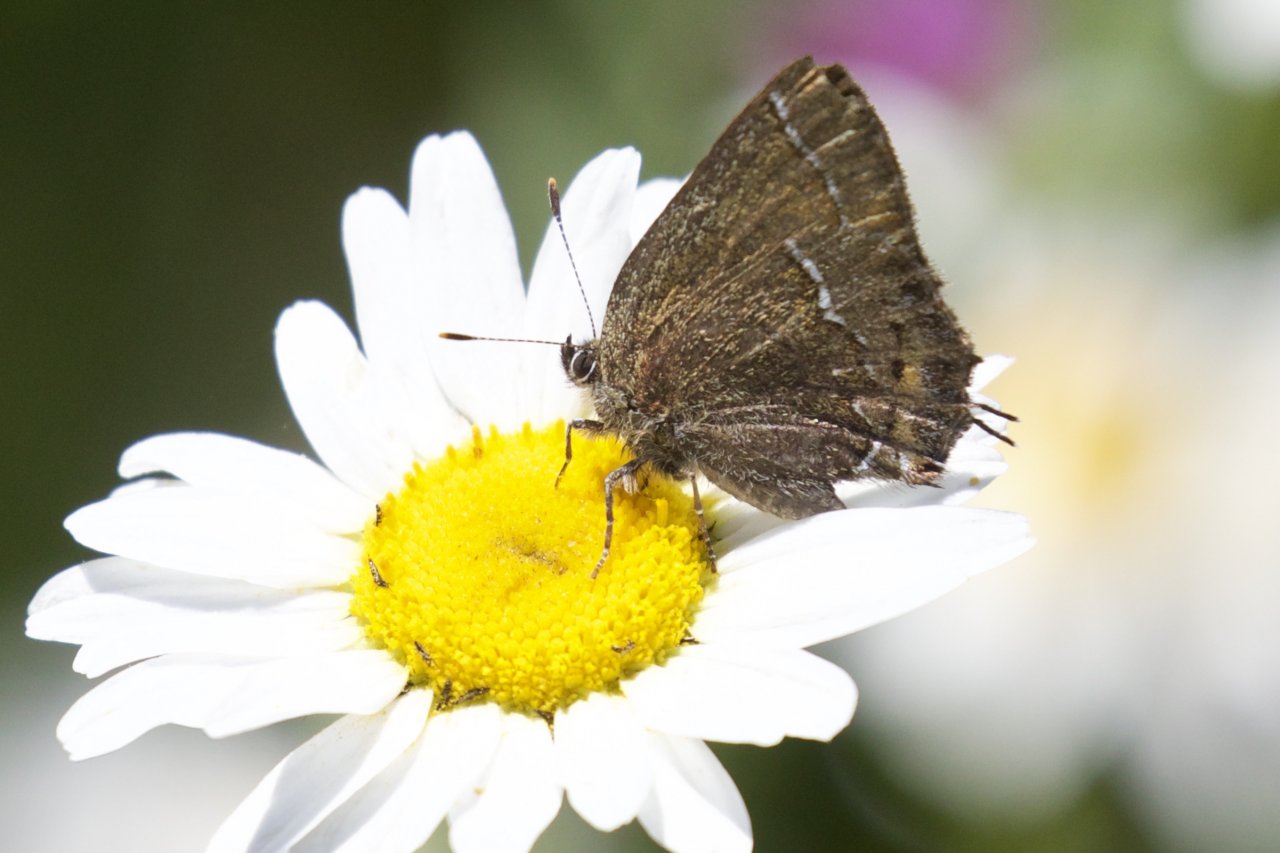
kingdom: Animalia
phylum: Arthropoda
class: Insecta
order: Lepidoptera
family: Lycaenidae
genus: Mitoura
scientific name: Mitoura gryneus
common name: Juniper Hairstreak
